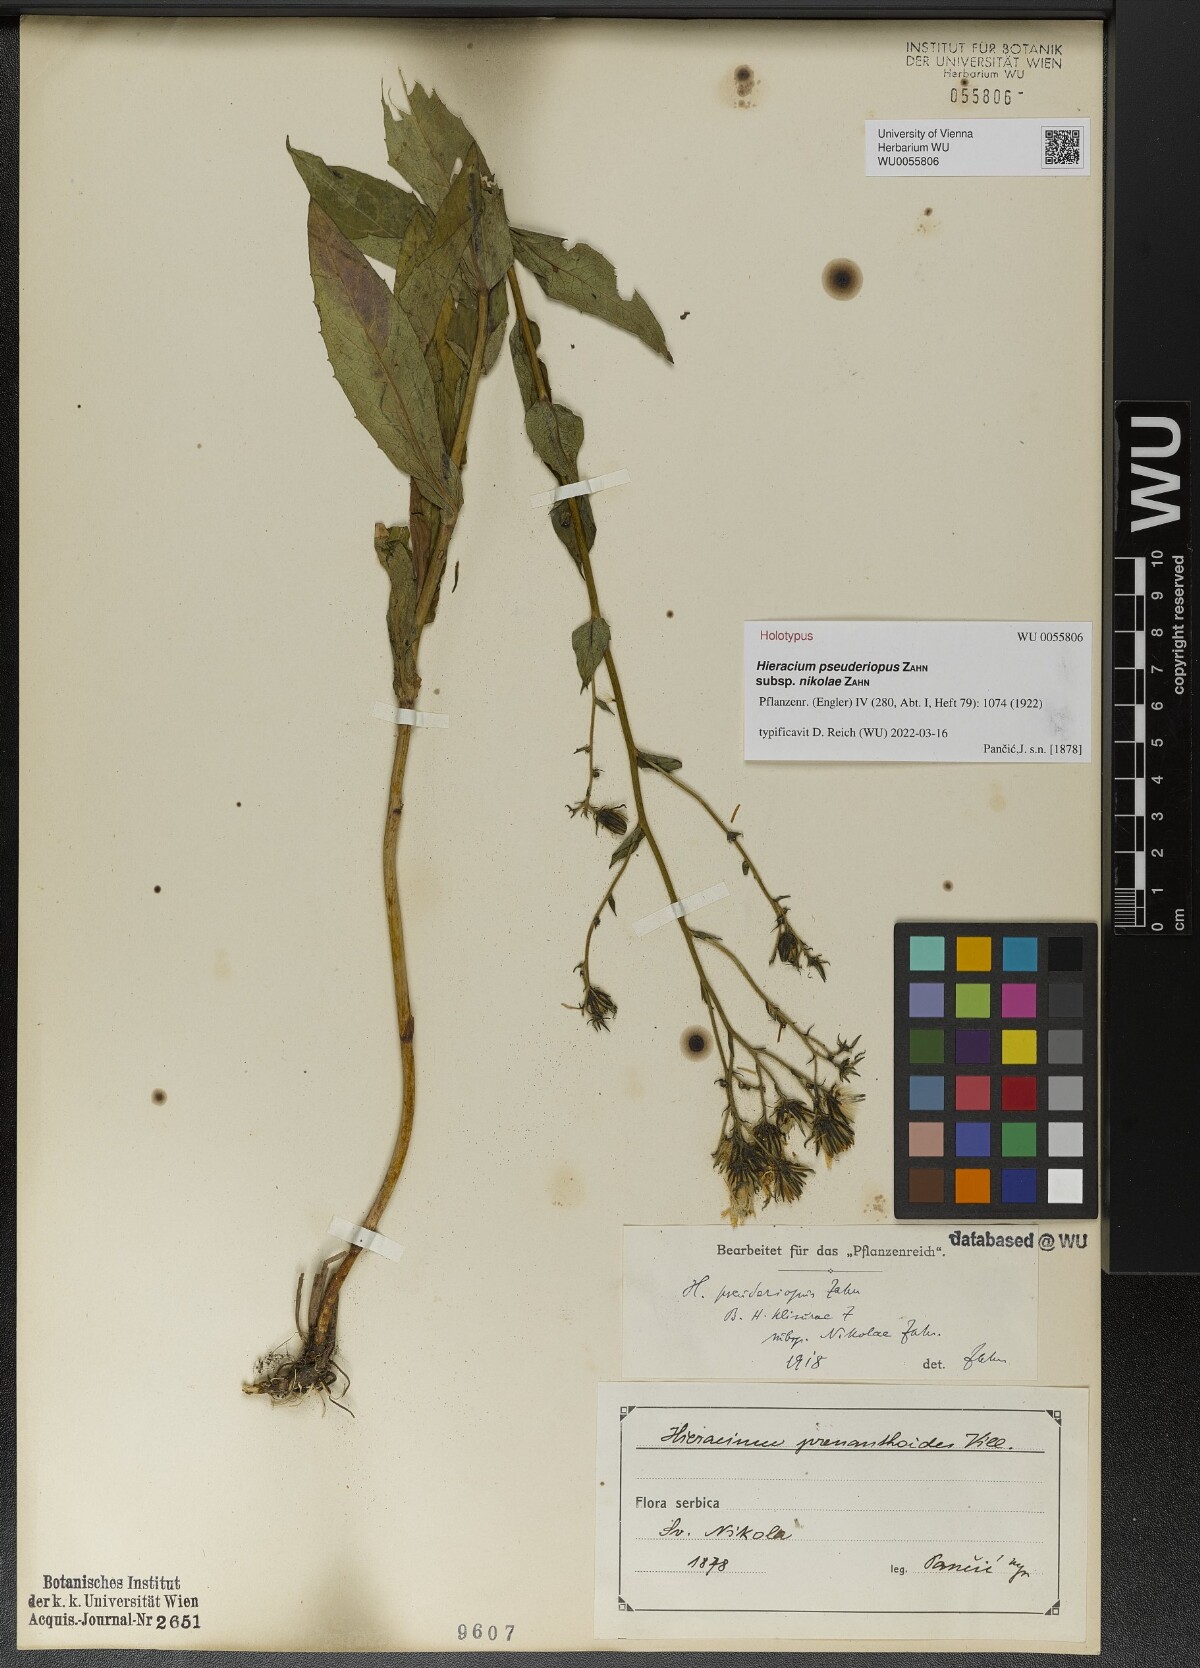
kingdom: Plantae
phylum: Tracheophyta
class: Magnoliopsida
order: Asterales
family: Asteraceae
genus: Hieracium
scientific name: Hieracium klisurae
